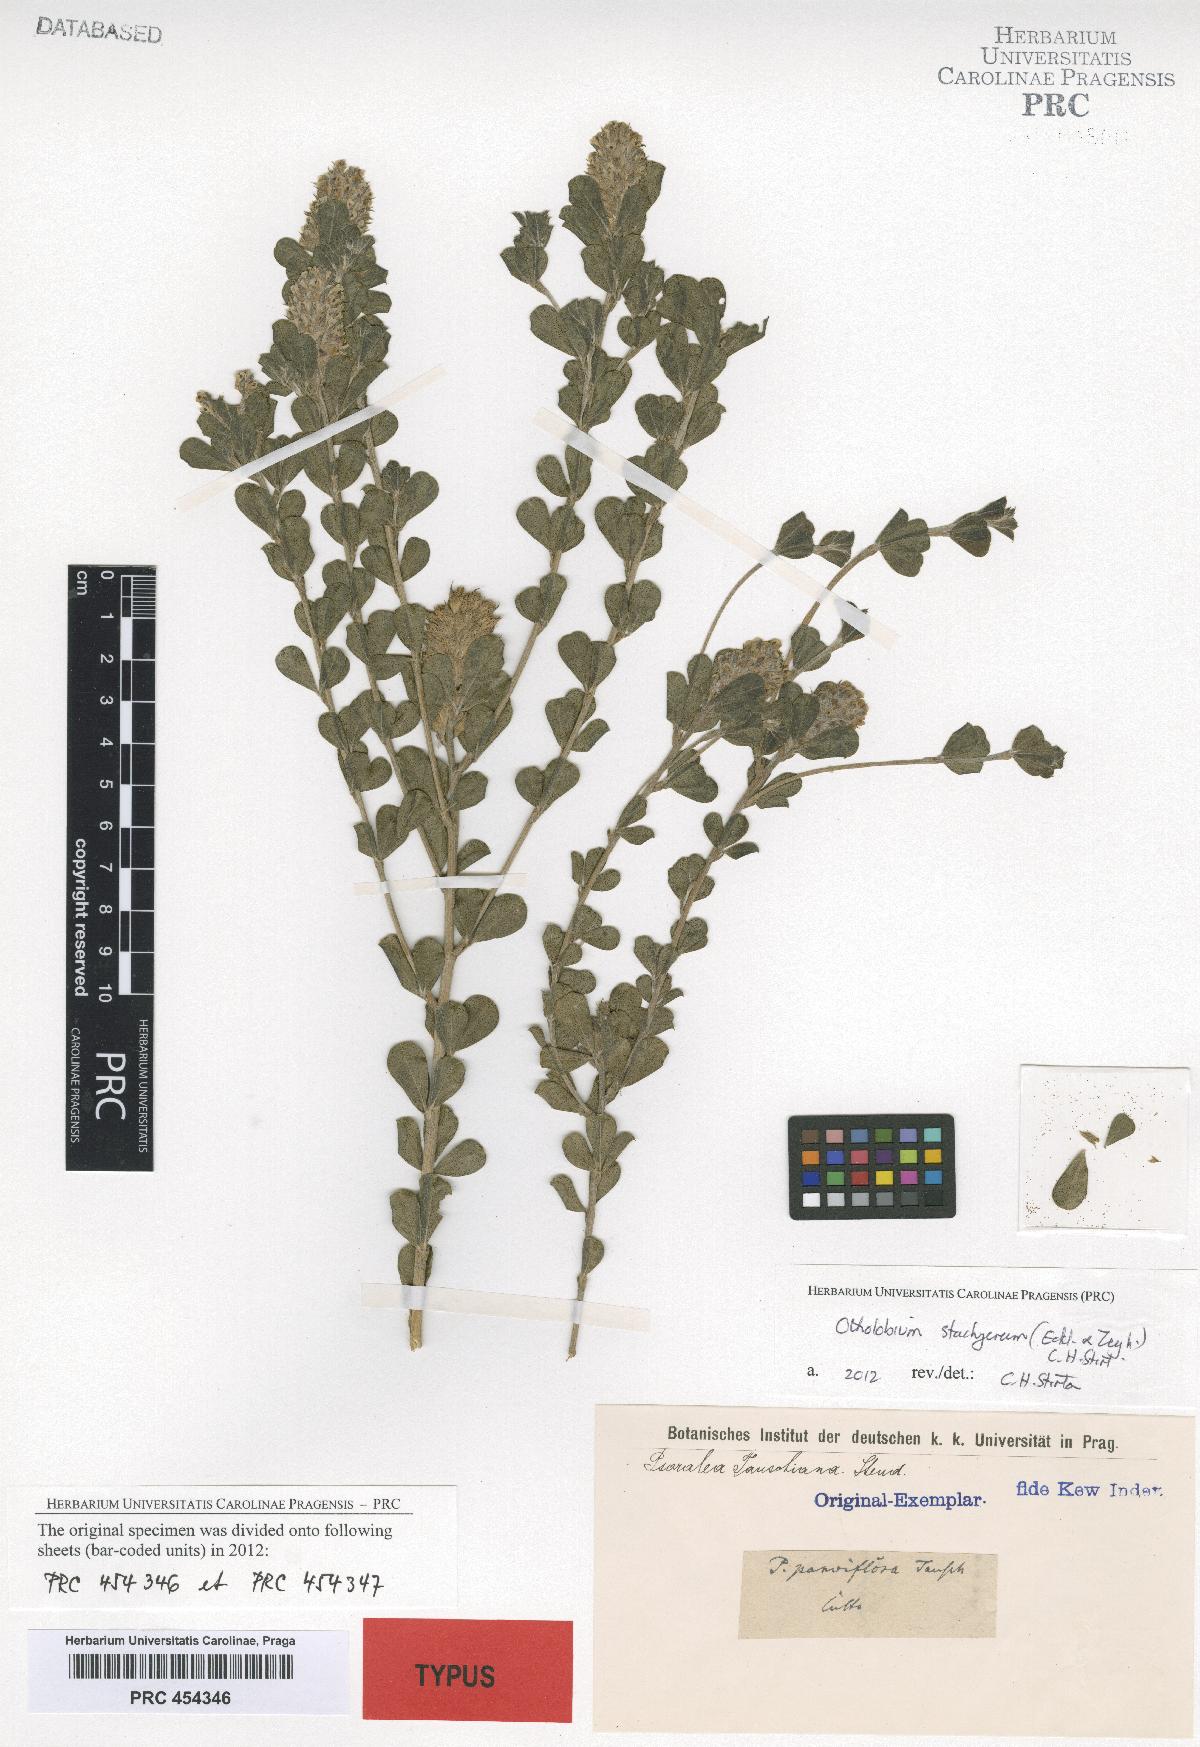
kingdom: Plantae
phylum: Tracheophyta
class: Magnoliopsida
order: Fabales
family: Fabaceae
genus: Psoralea
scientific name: Psoralea tauschiana
